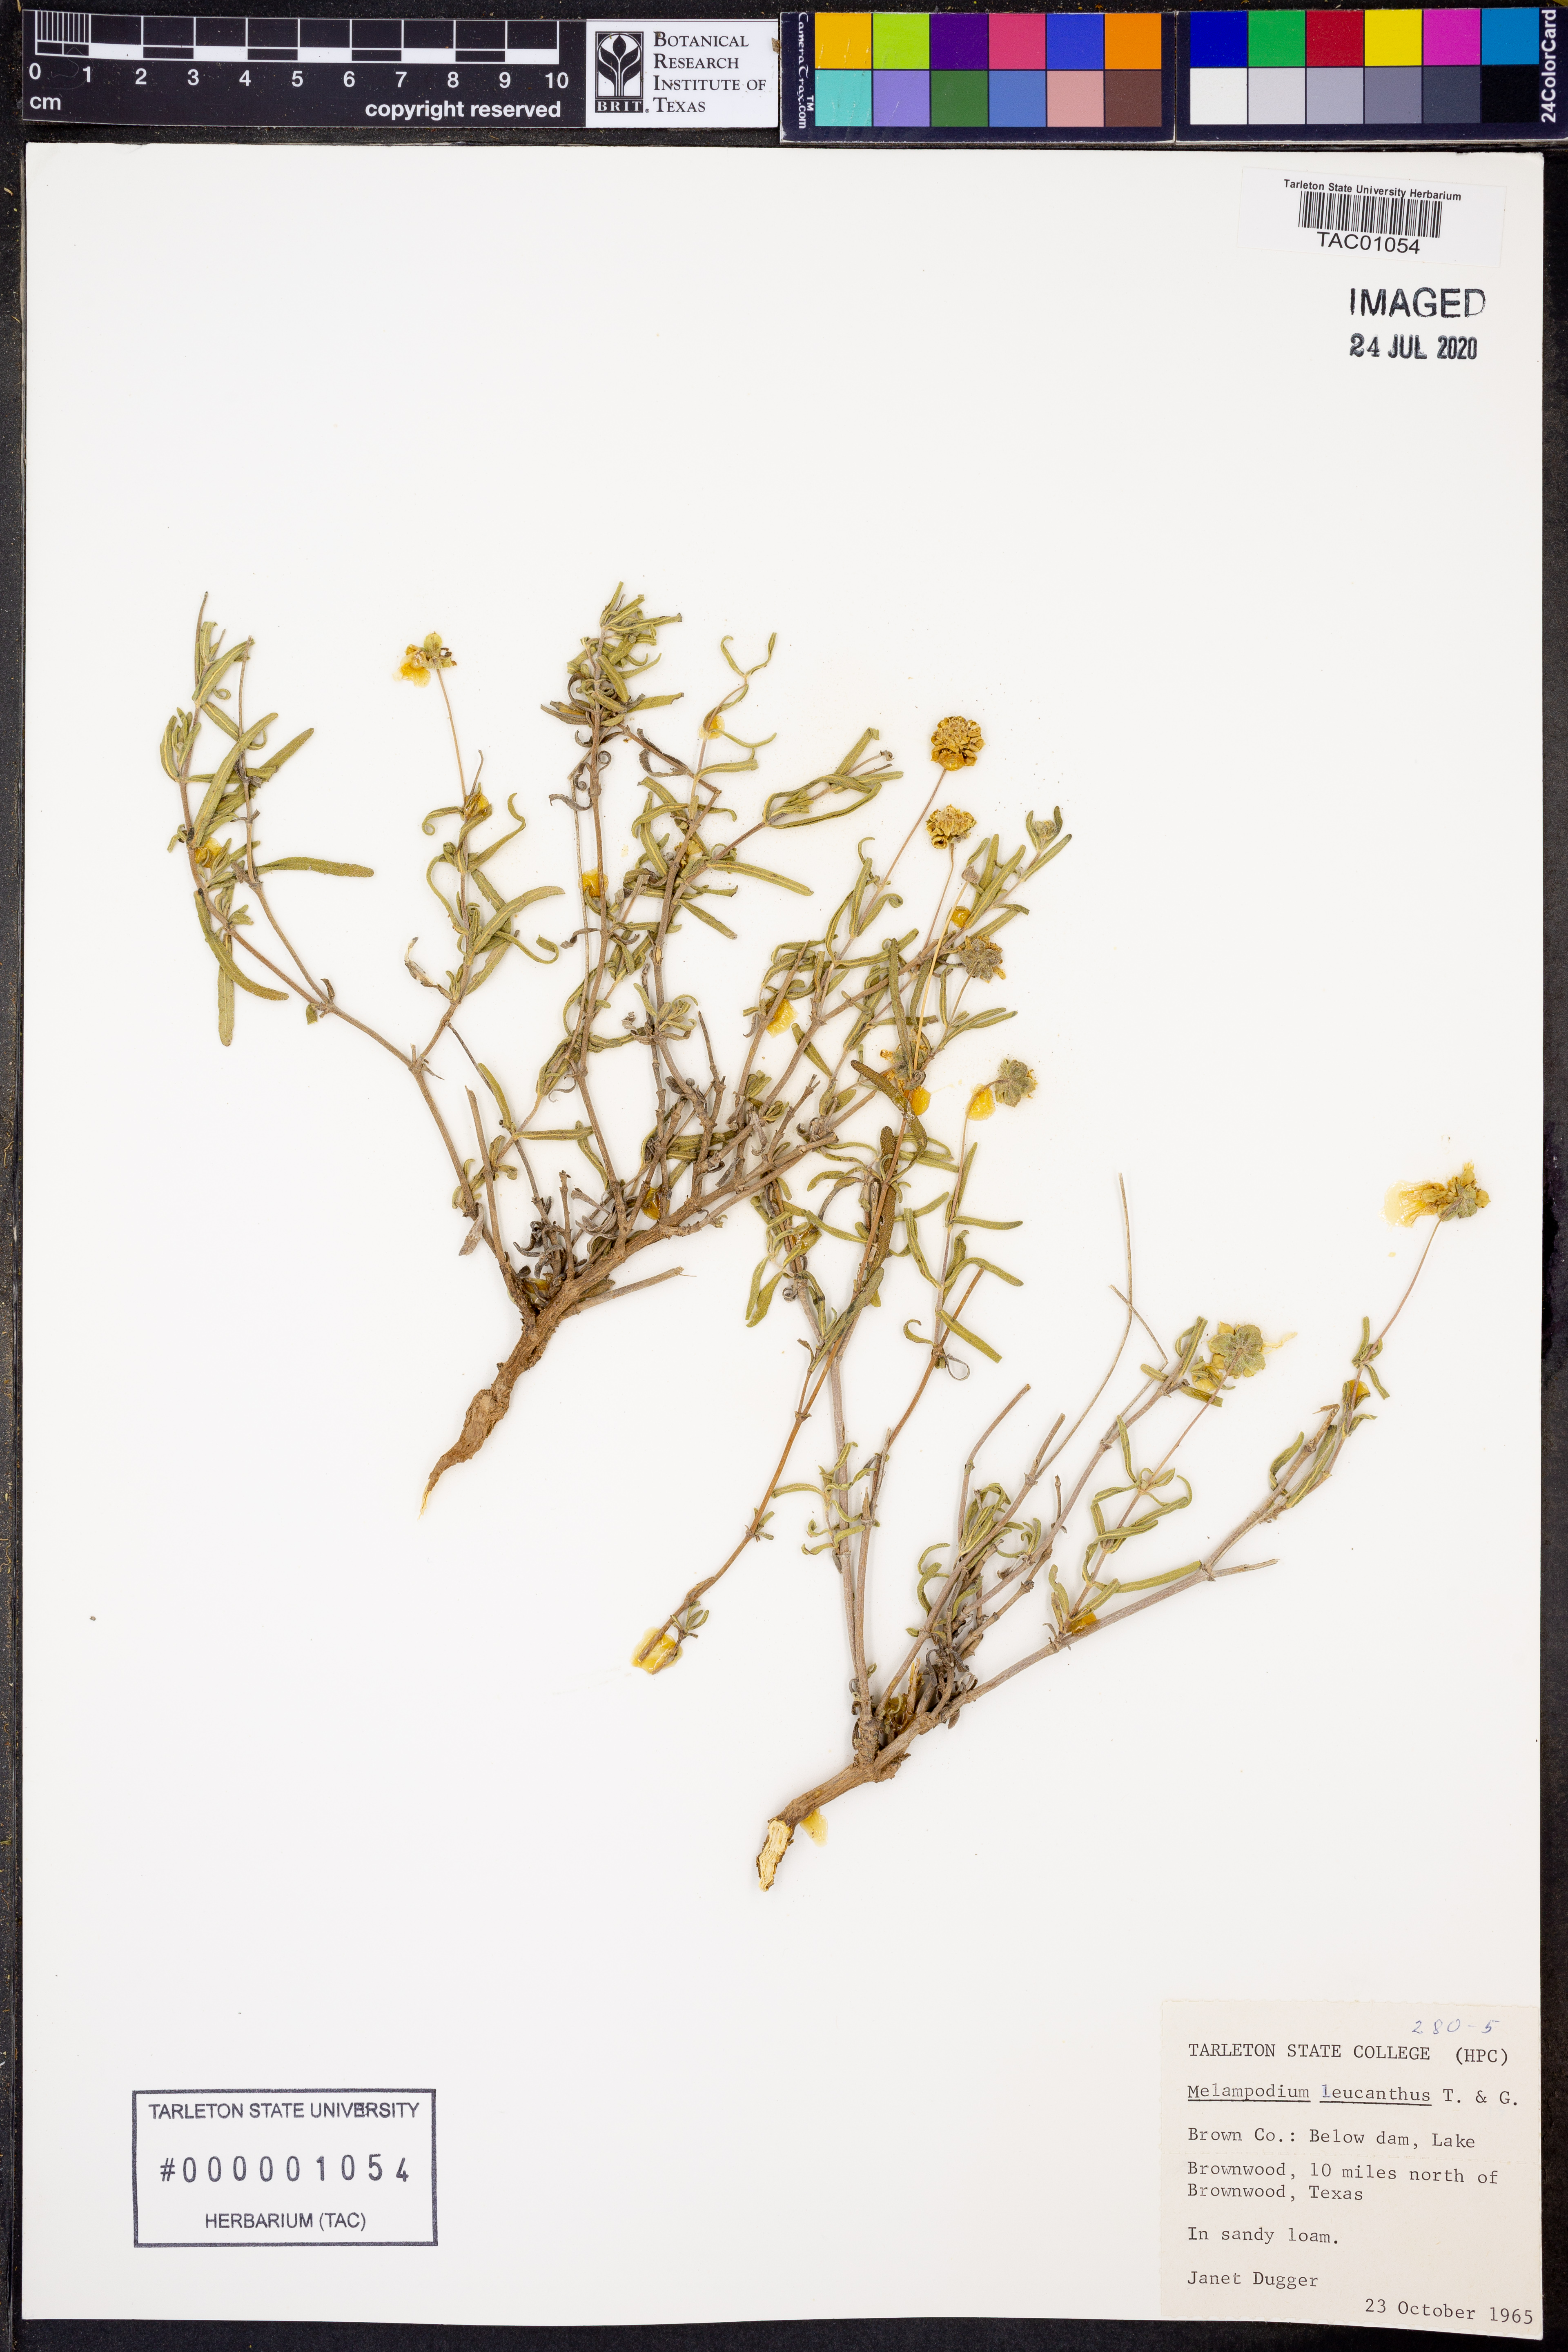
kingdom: Plantae
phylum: Tracheophyta
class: Magnoliopsida
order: Asterales
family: Asteraceae
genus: Melampodium
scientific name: Melampodium leucanthum
